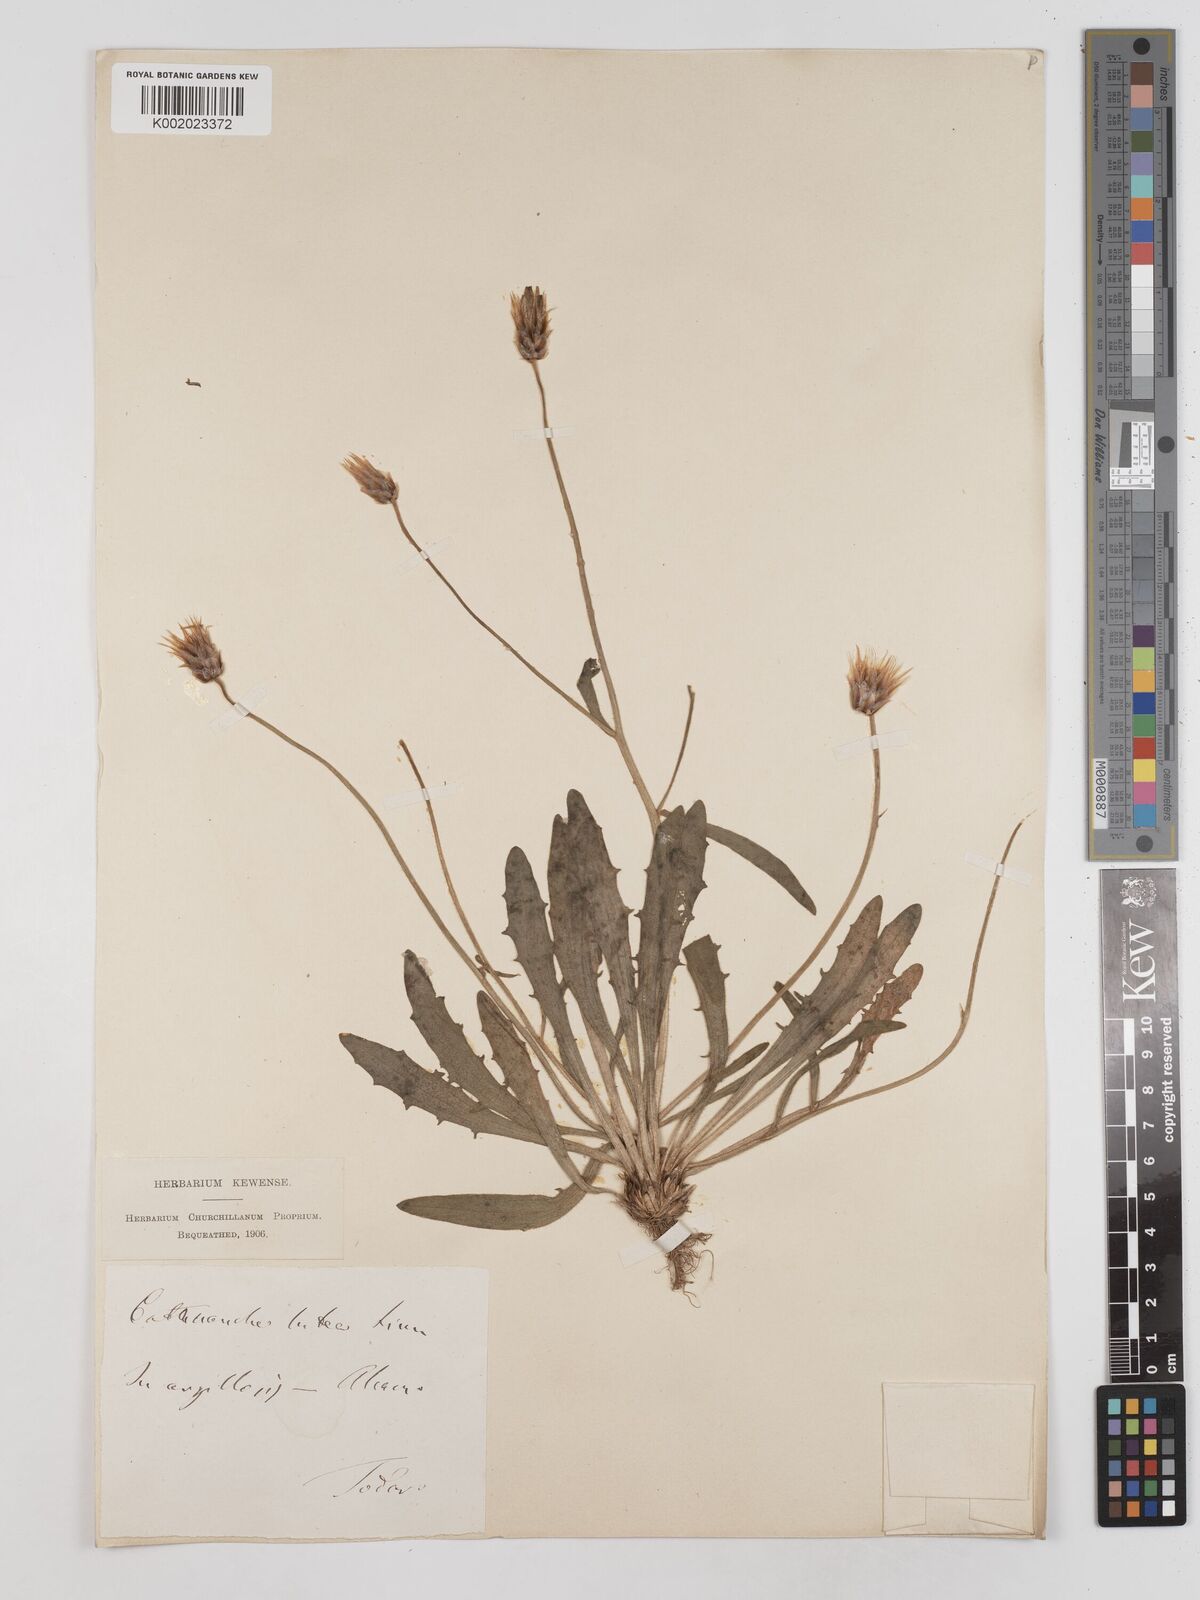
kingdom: Plantae
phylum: Tracheophyta
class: Magnoliopsida
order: Asterales
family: Asteraceae
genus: Catananche
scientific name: Catananche lutea
